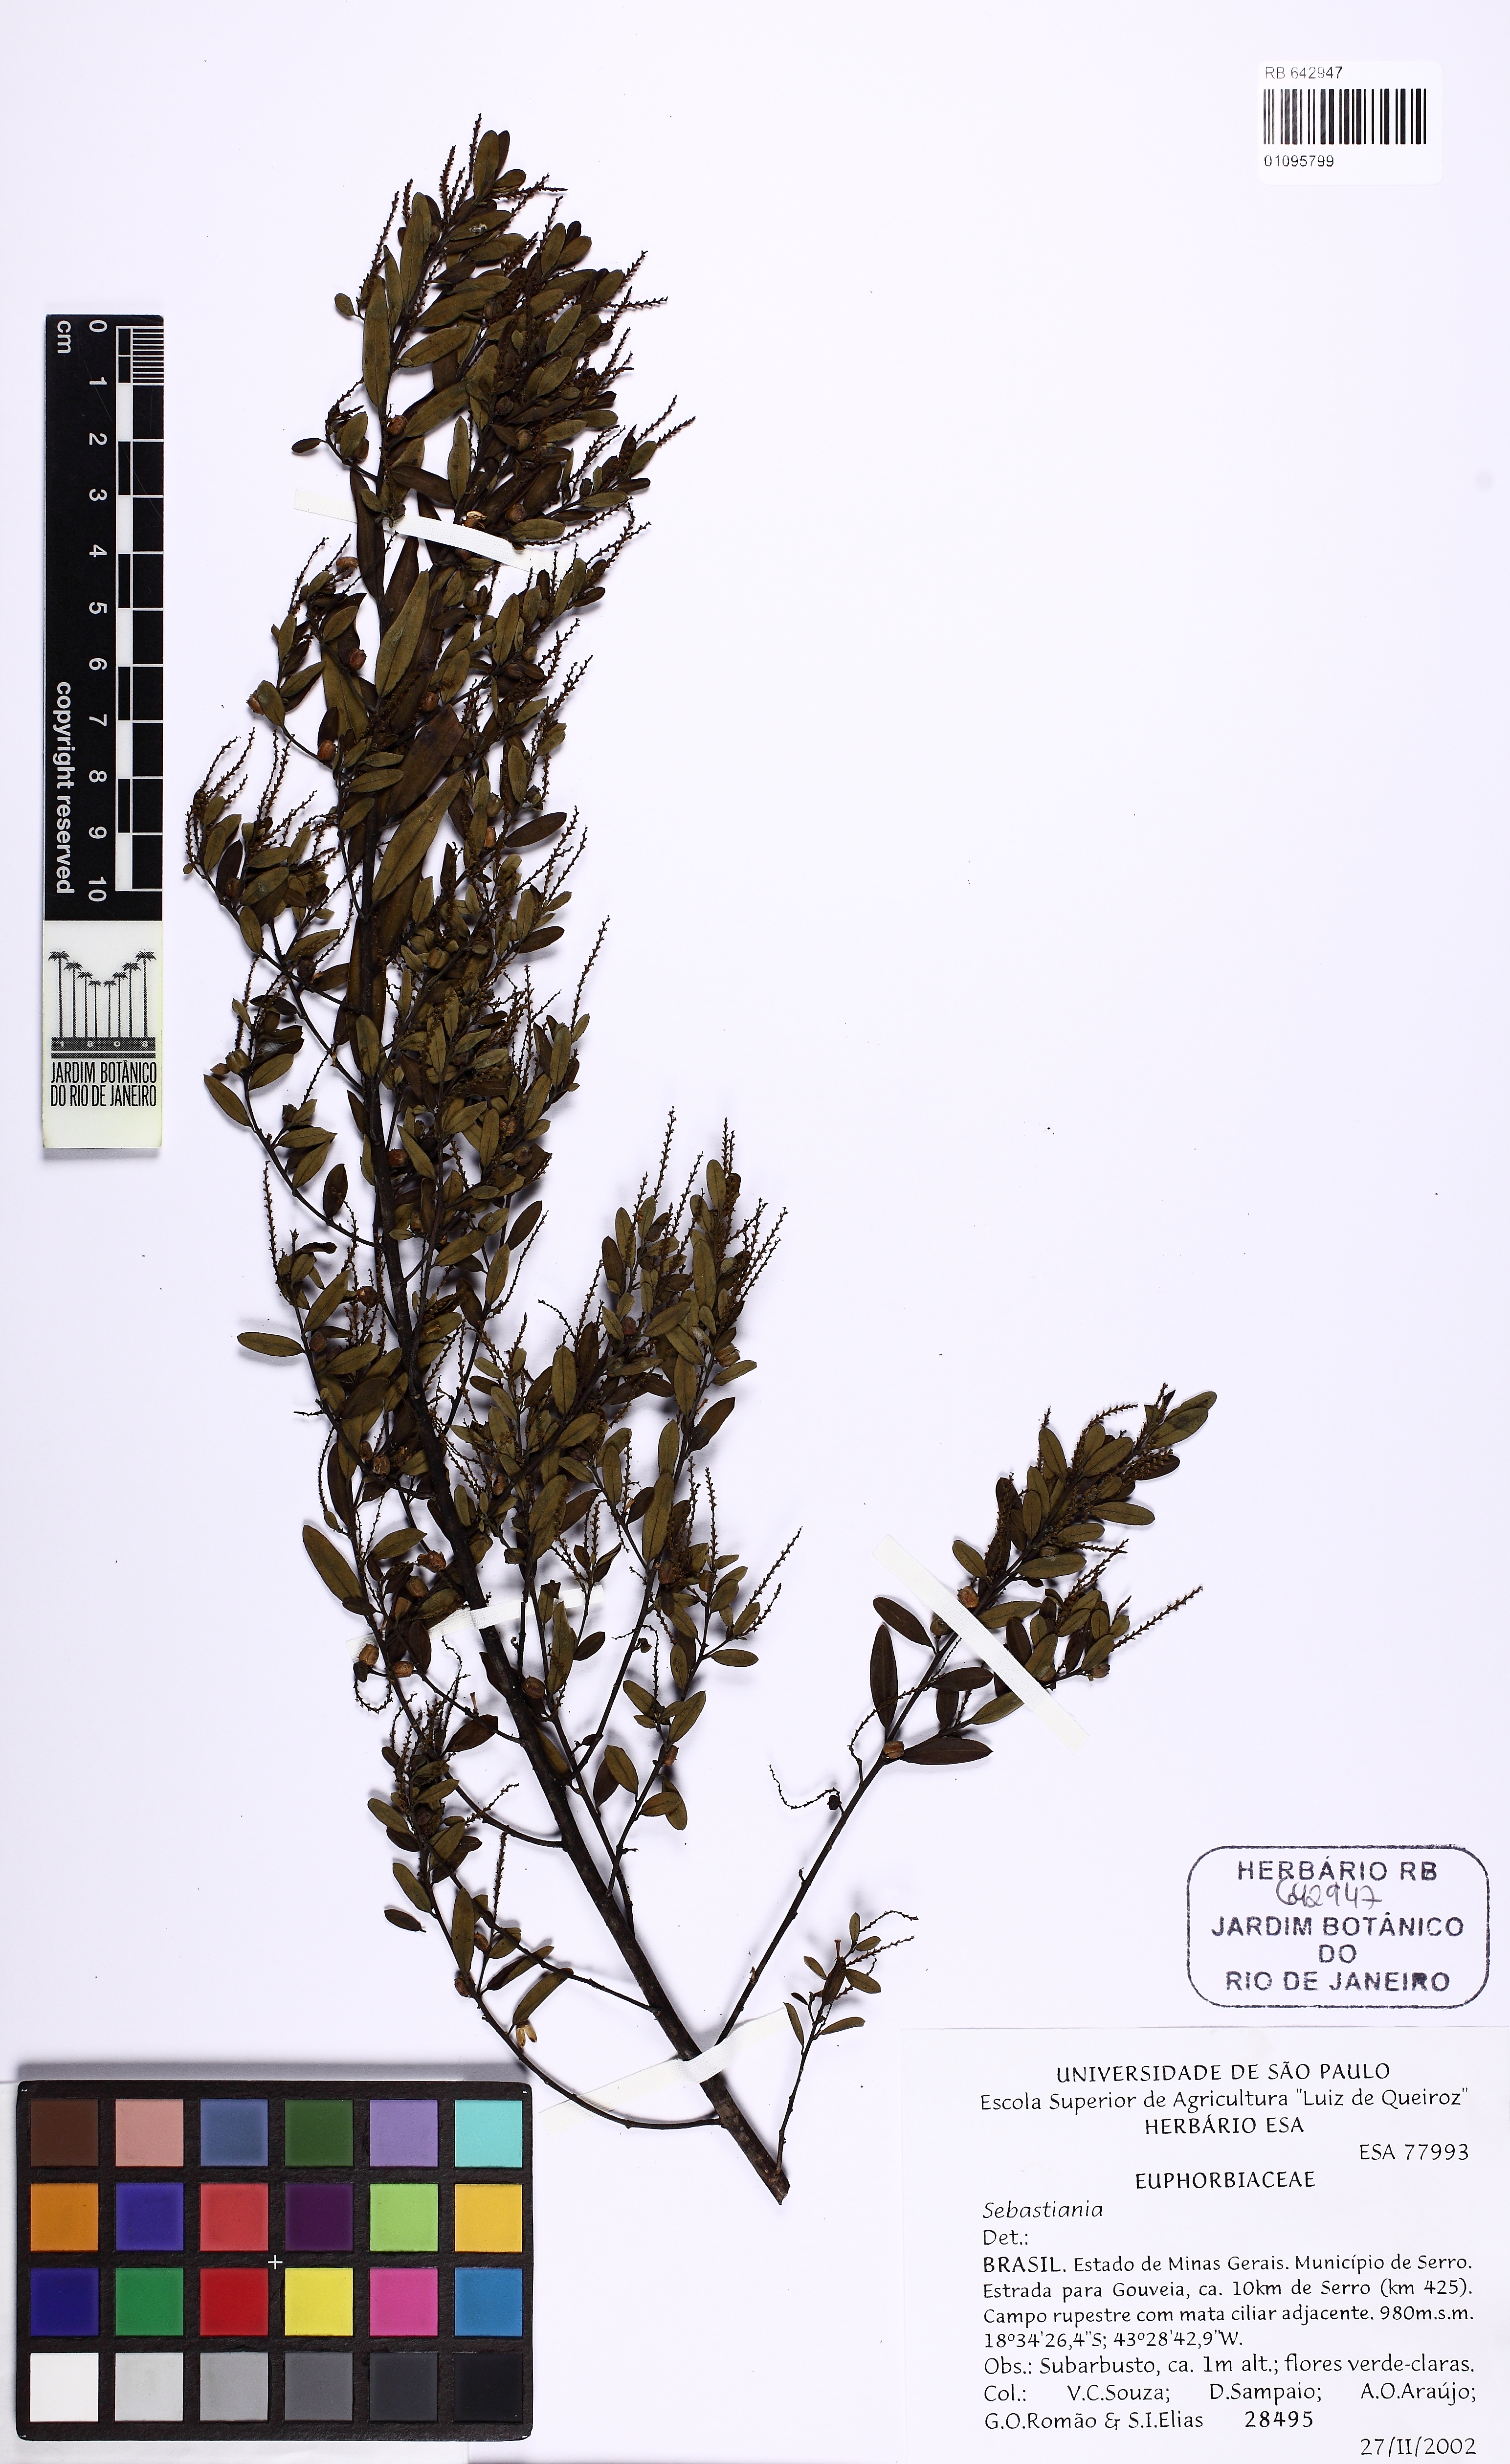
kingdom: Plantae
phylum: Tracheophyta
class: Magnoliopsida
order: Malpighiales
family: Euphorbiaceae
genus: Sebastiania
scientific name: Sebastiania
